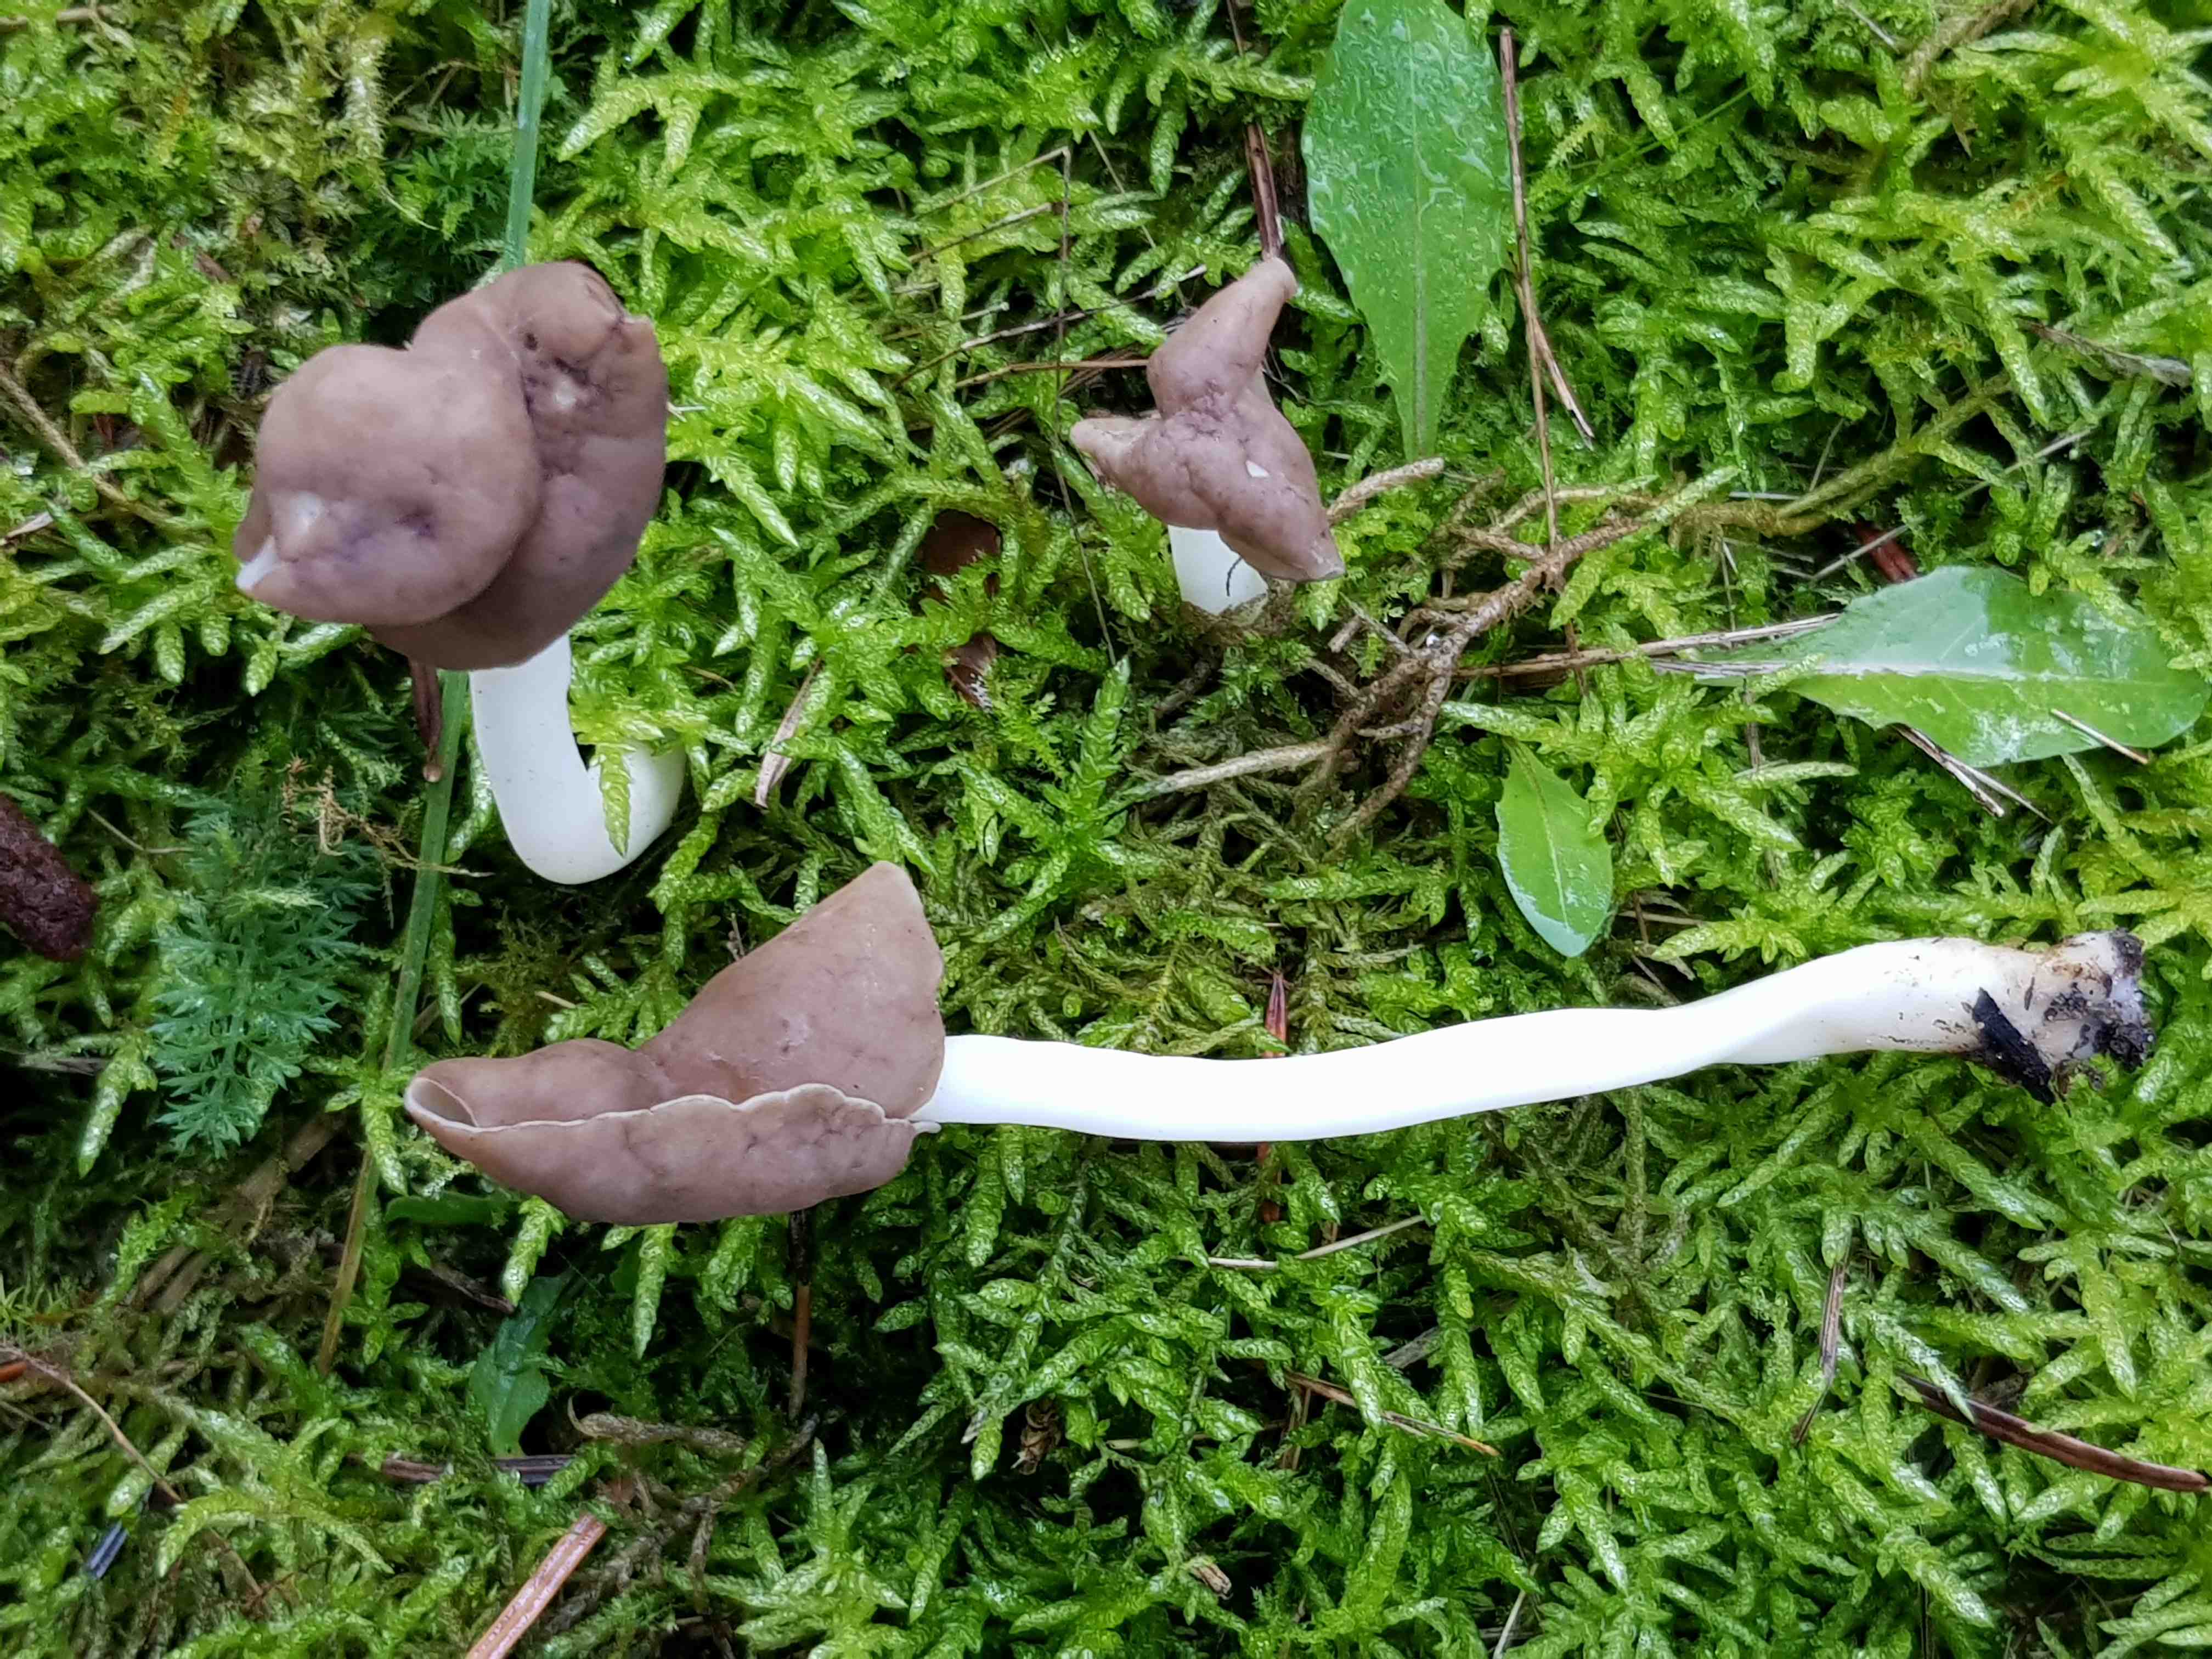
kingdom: Fungi
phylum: Ascomycota
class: Pezizomycetes
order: Pezizales
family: Helvellaceae
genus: Helvella
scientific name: Helvella elastica
